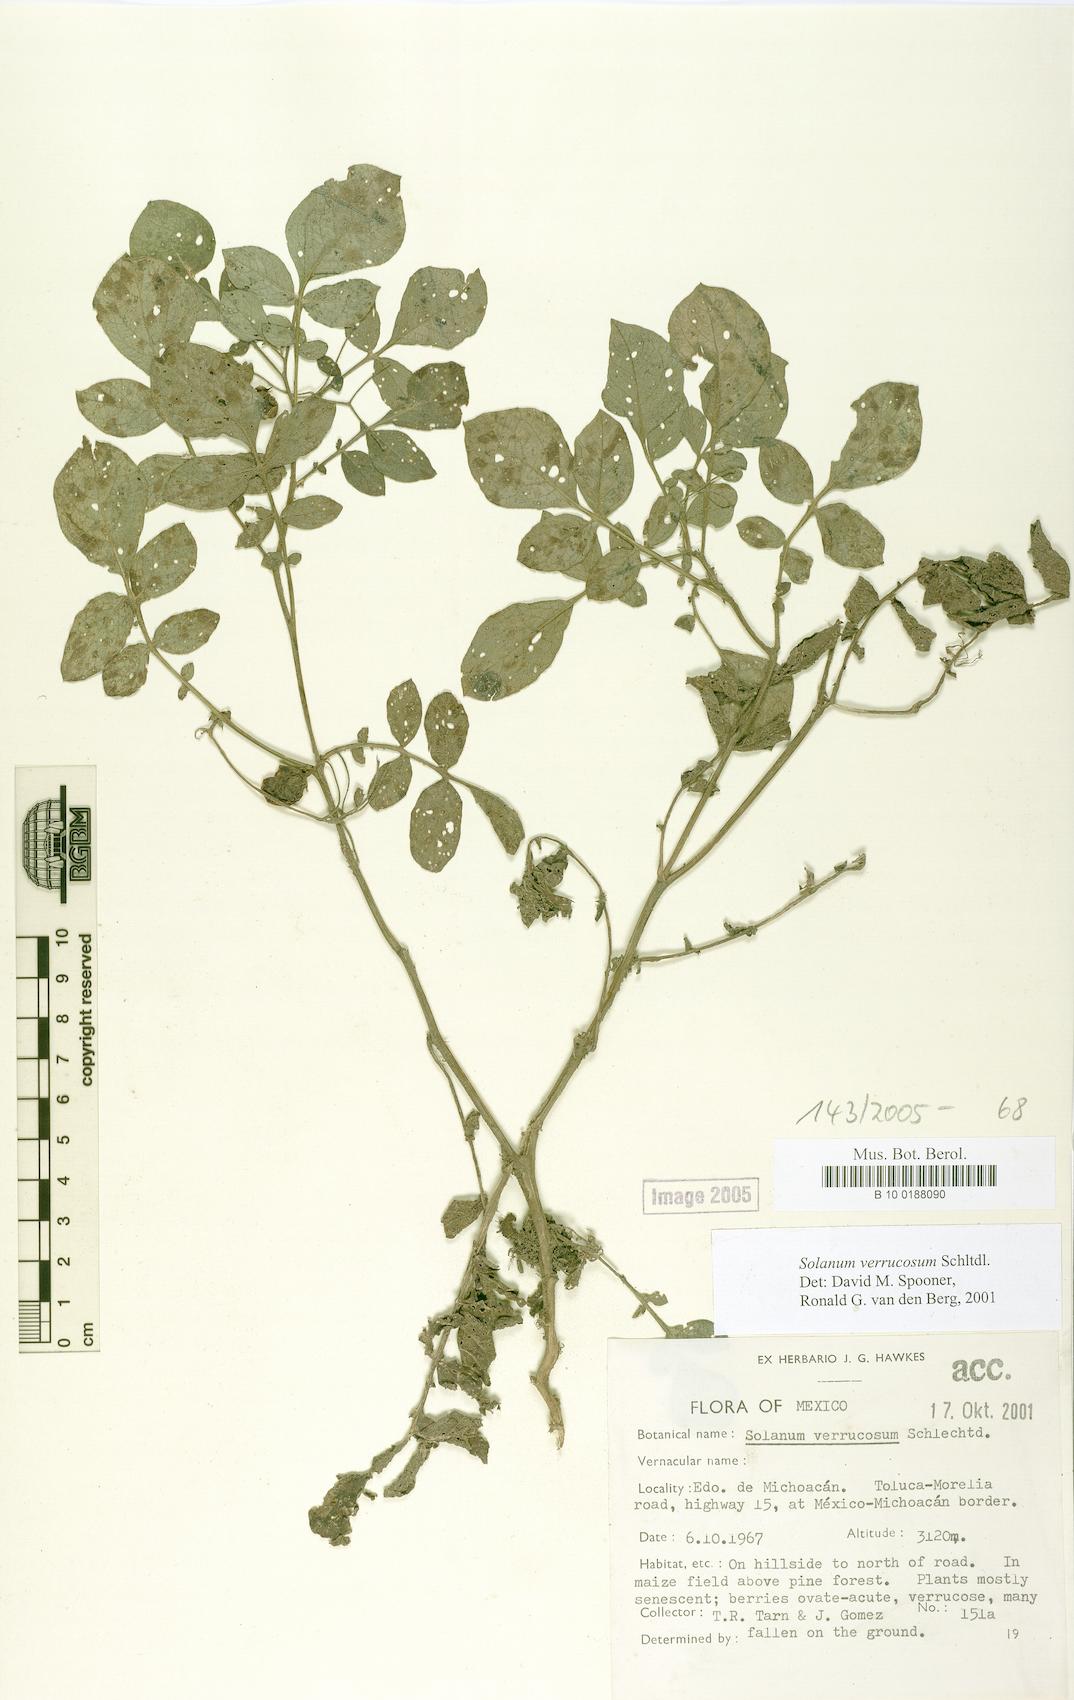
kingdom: Plantae
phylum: Tracheophyta
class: Magnoliopsida
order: Solanales
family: Solanaceae
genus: Solanum
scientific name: Solanum verrucosum
